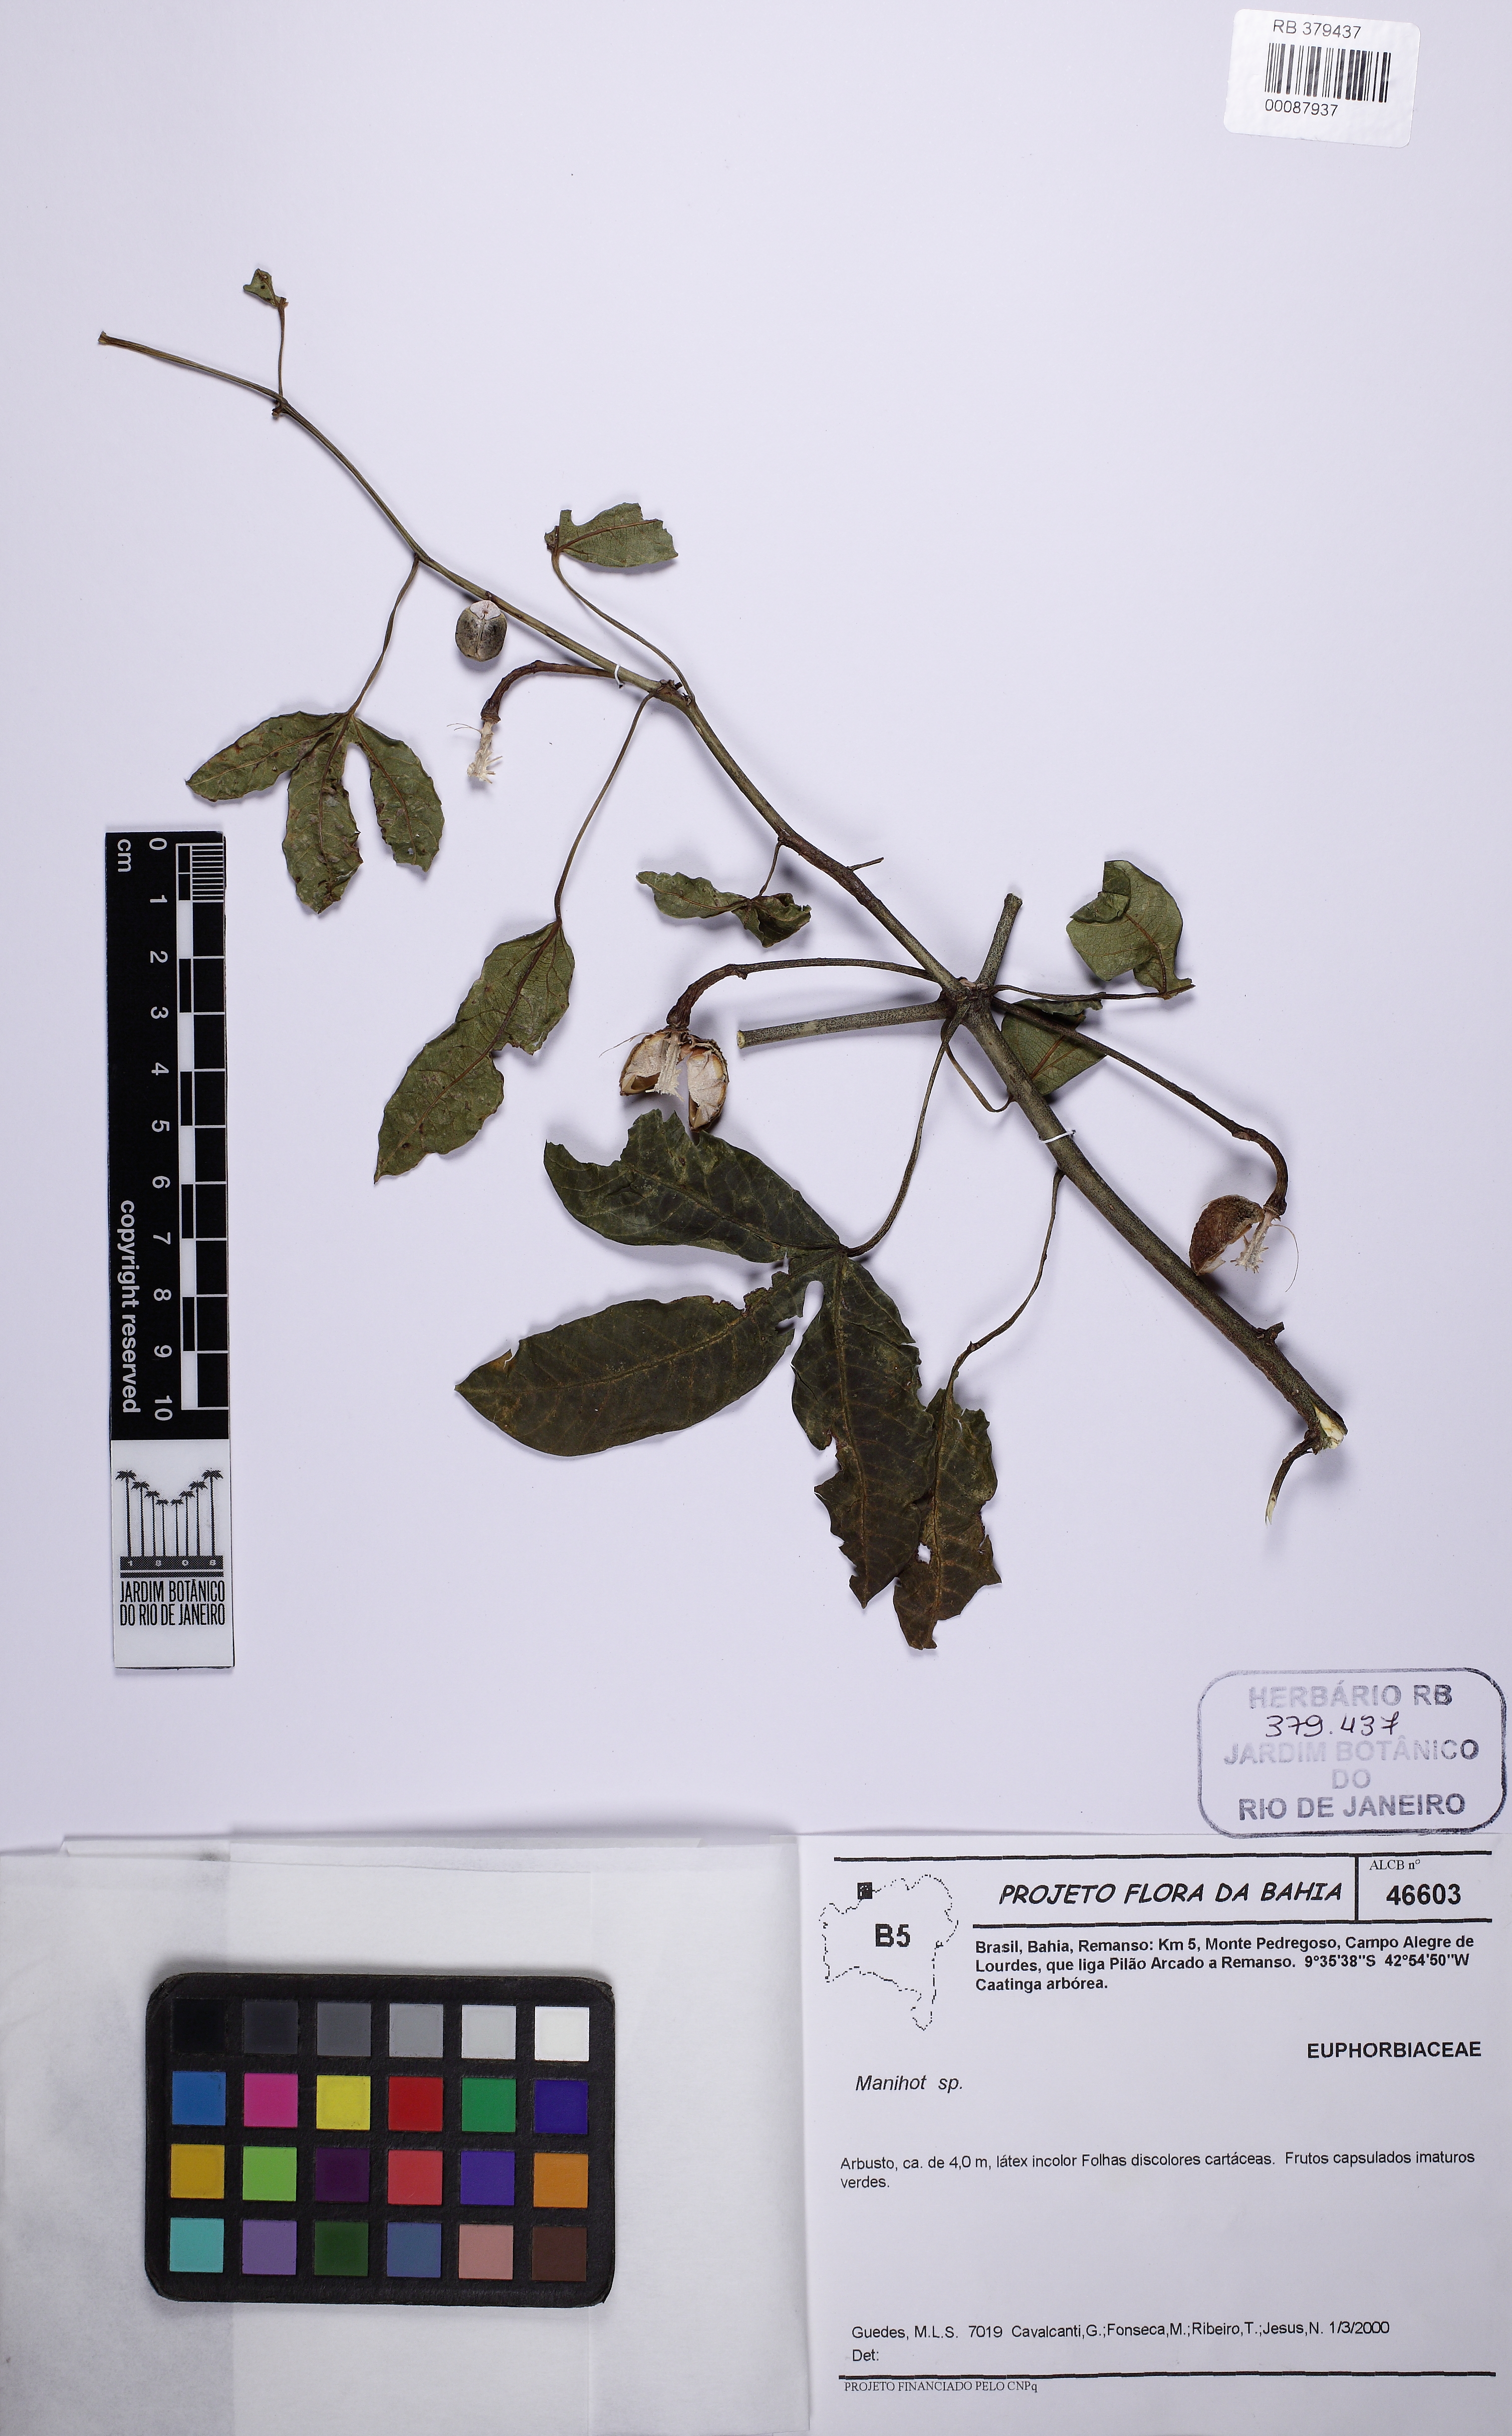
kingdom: Plantae
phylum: Tracheophyta
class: Magnoliopsida
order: Malpighiales
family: Euphorbiaceae
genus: Manihot
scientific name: Manihot pseudoglaziovii
